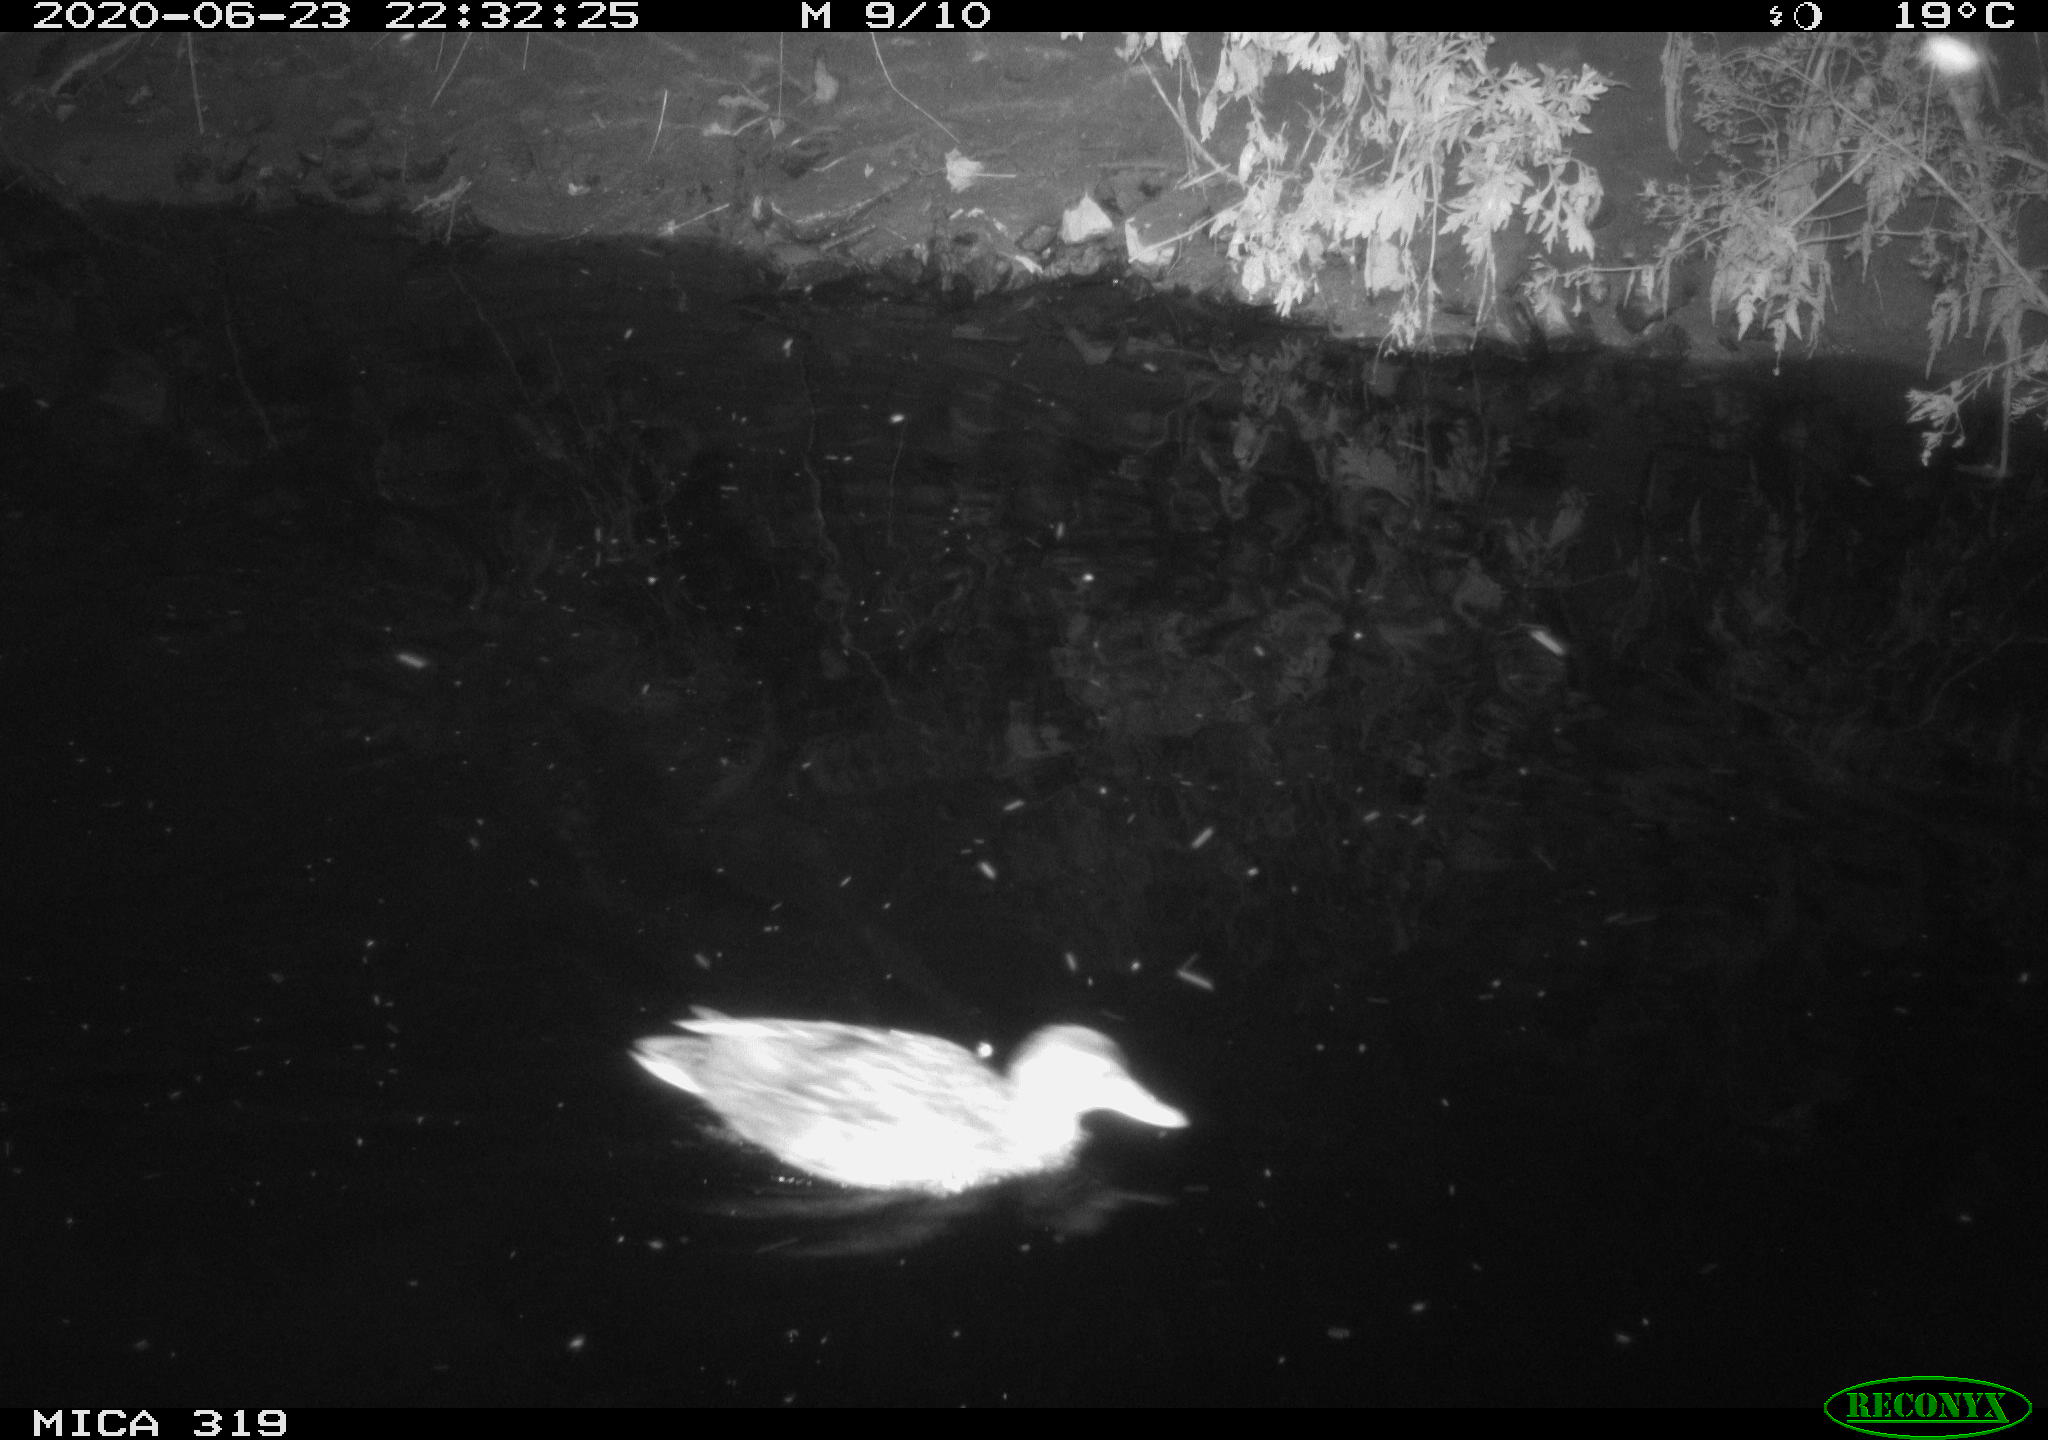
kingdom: Animalia
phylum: Chordata
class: Aves
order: Anseriformes
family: Anatidae
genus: Anas
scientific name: Anas platyrhynchos
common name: Mallard
